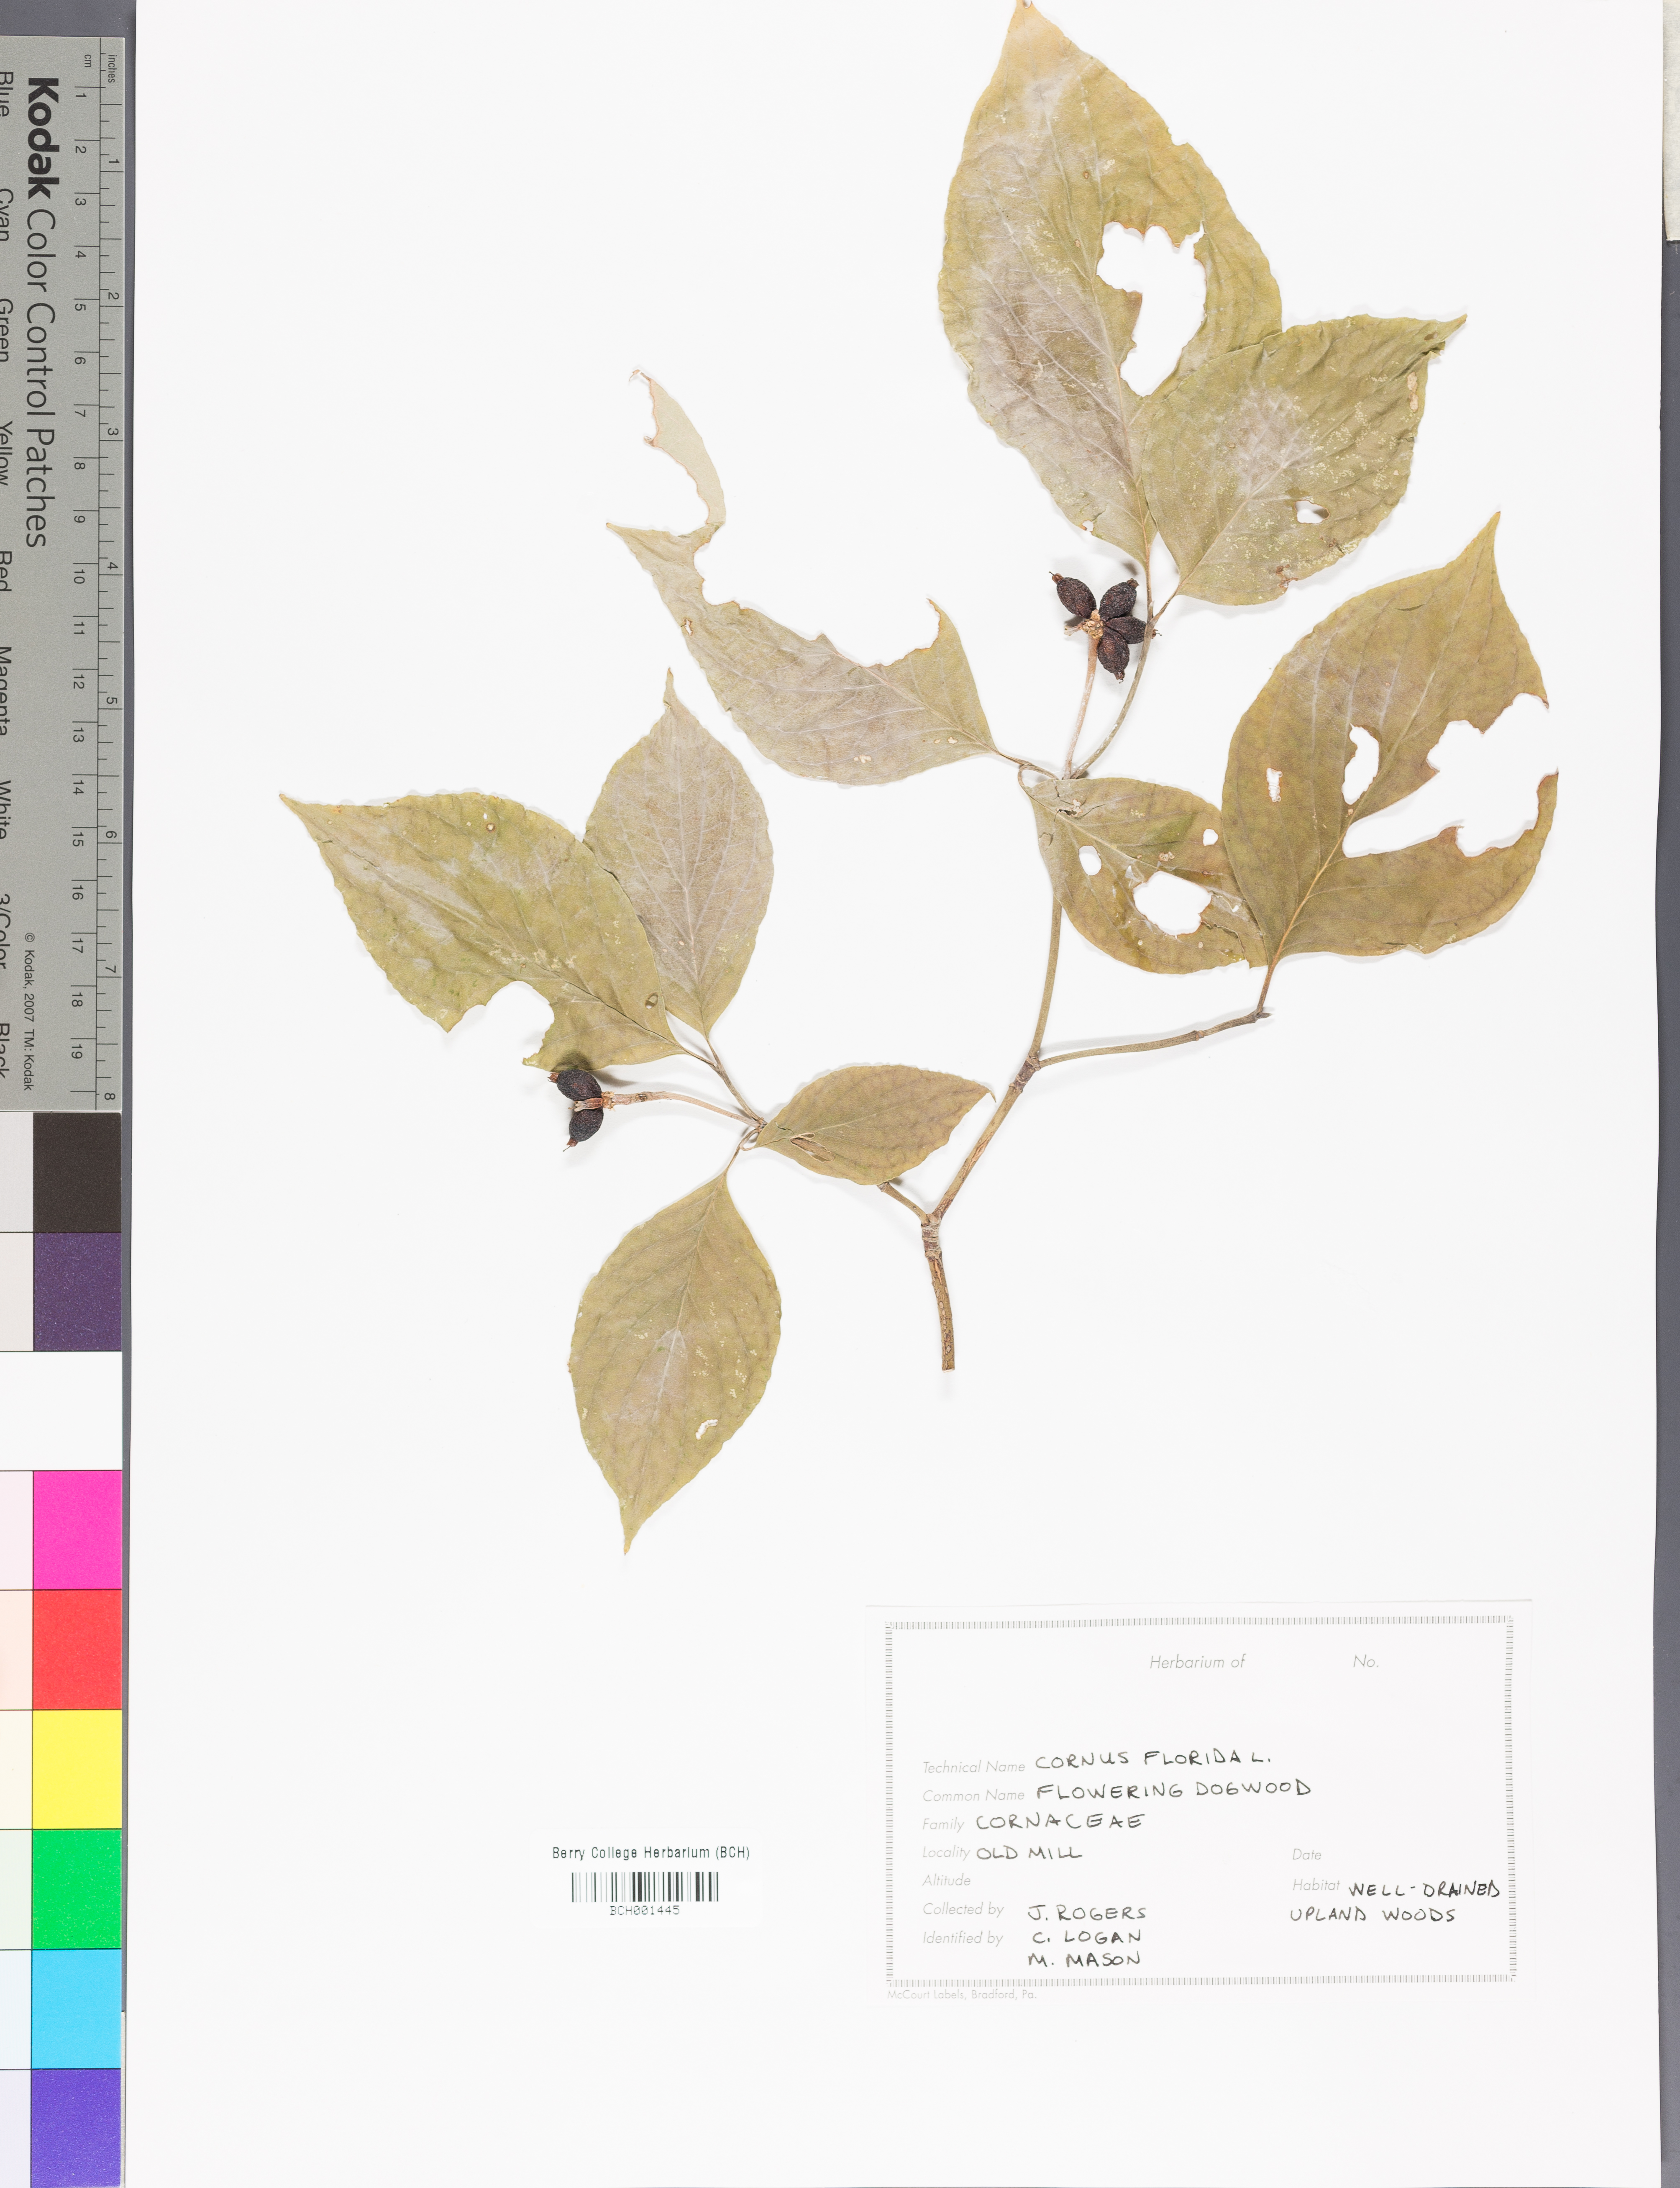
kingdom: Plantae
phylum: Tracheophyta
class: Magnoliopsida
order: Cornales
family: Cornaceae
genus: Cornus
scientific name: Cornus florida
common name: Flowering dogwood
